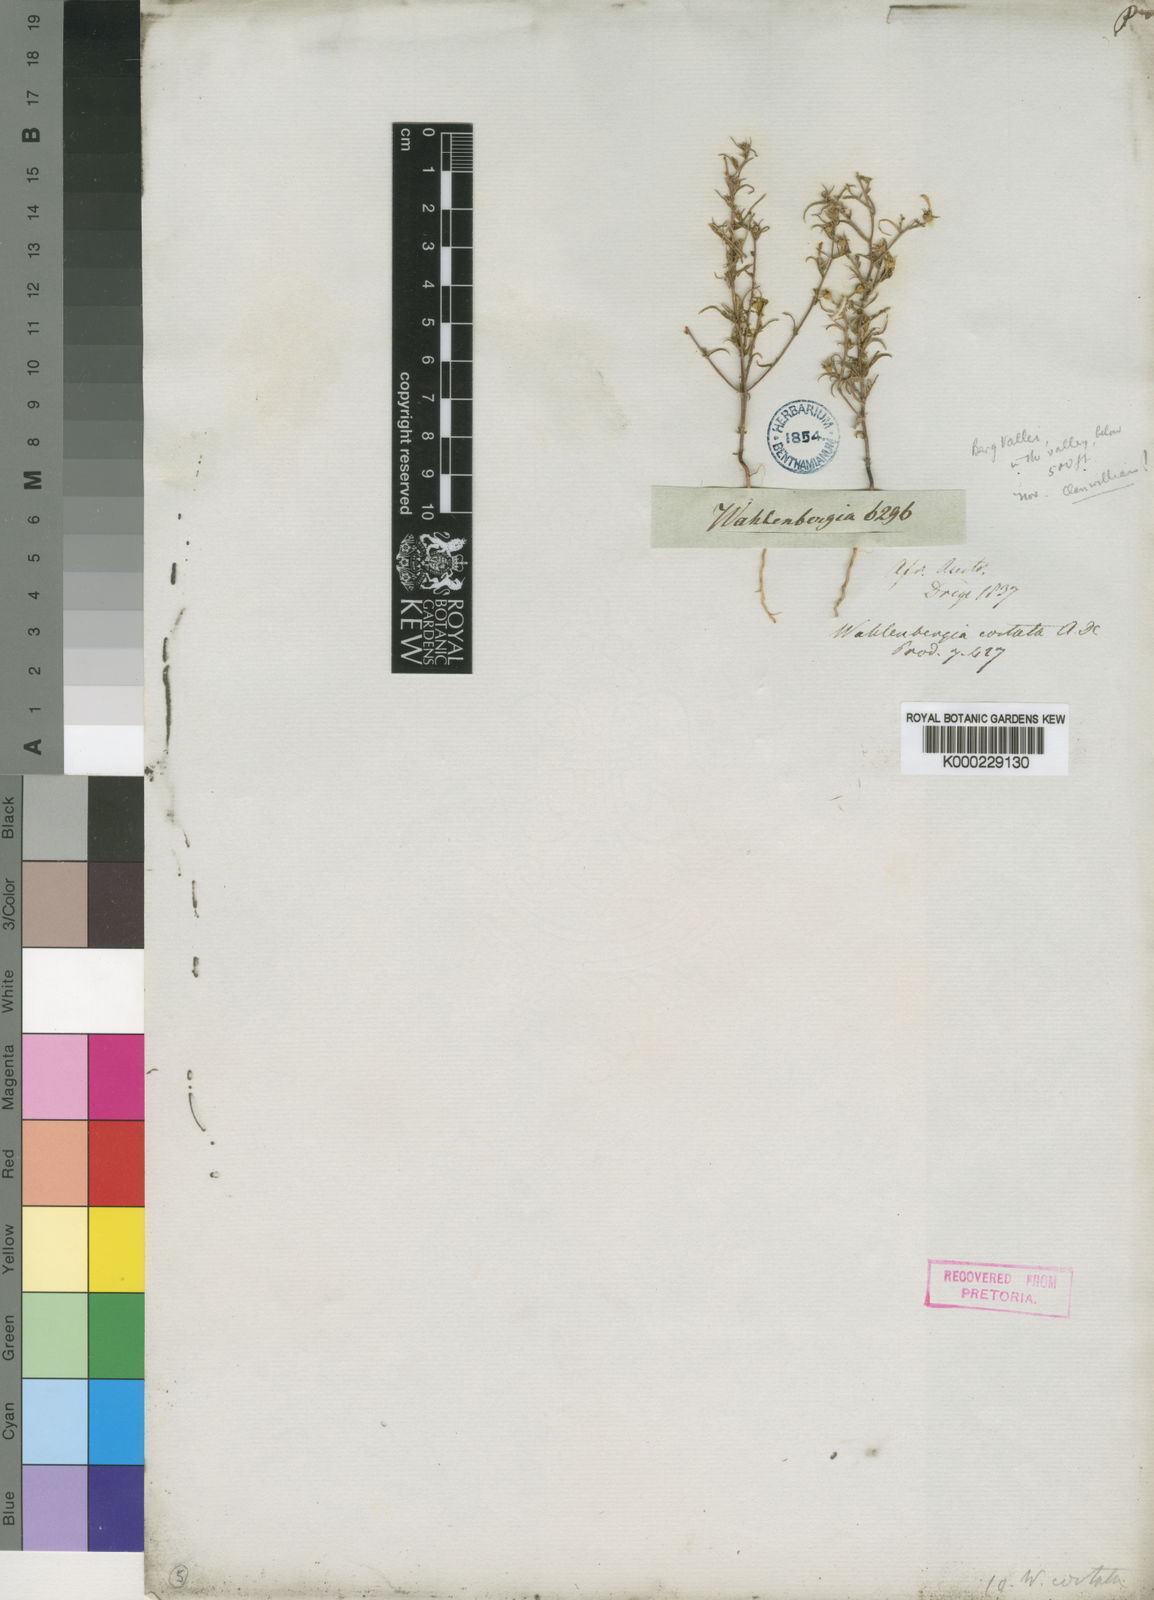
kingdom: Plantae
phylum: Tracheophyta
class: Magnoliopsida
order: Asterales
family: Campanulaceae
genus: Wahlenbergia
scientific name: Wahlenbergia costata
